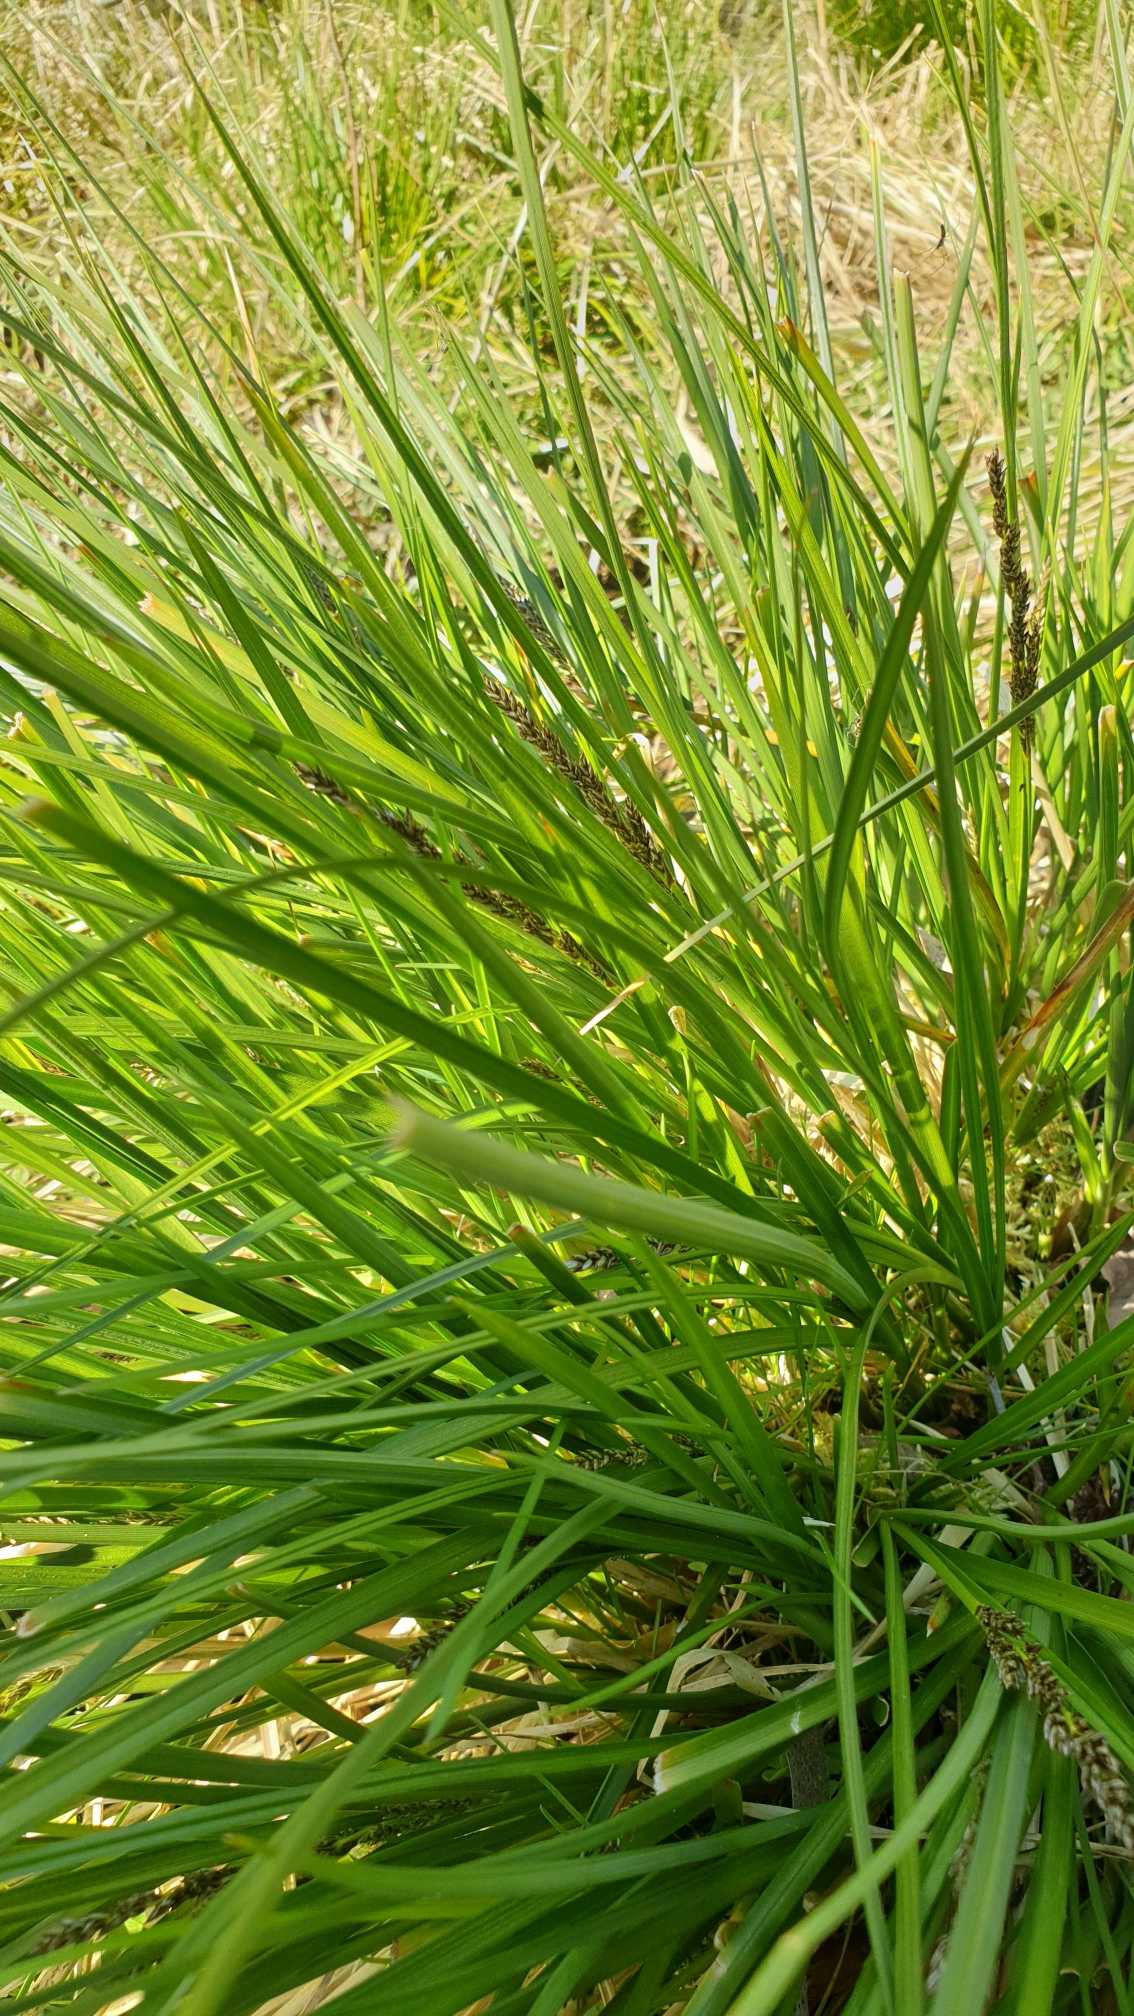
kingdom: Plantae
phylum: Tracheophyta
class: Liliopsida
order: Poales
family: Cyperaceae
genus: Carex
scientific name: Carex paniculata
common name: Top-star
